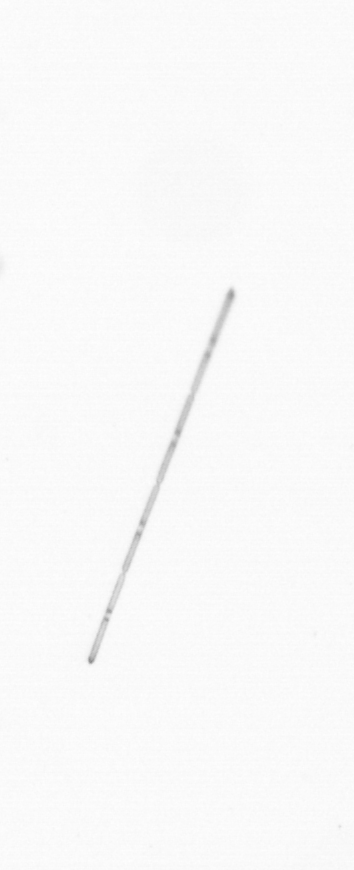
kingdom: Chromista
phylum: Ochrophyta
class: Bacillariophyceae
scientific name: Bacillariophyceae
